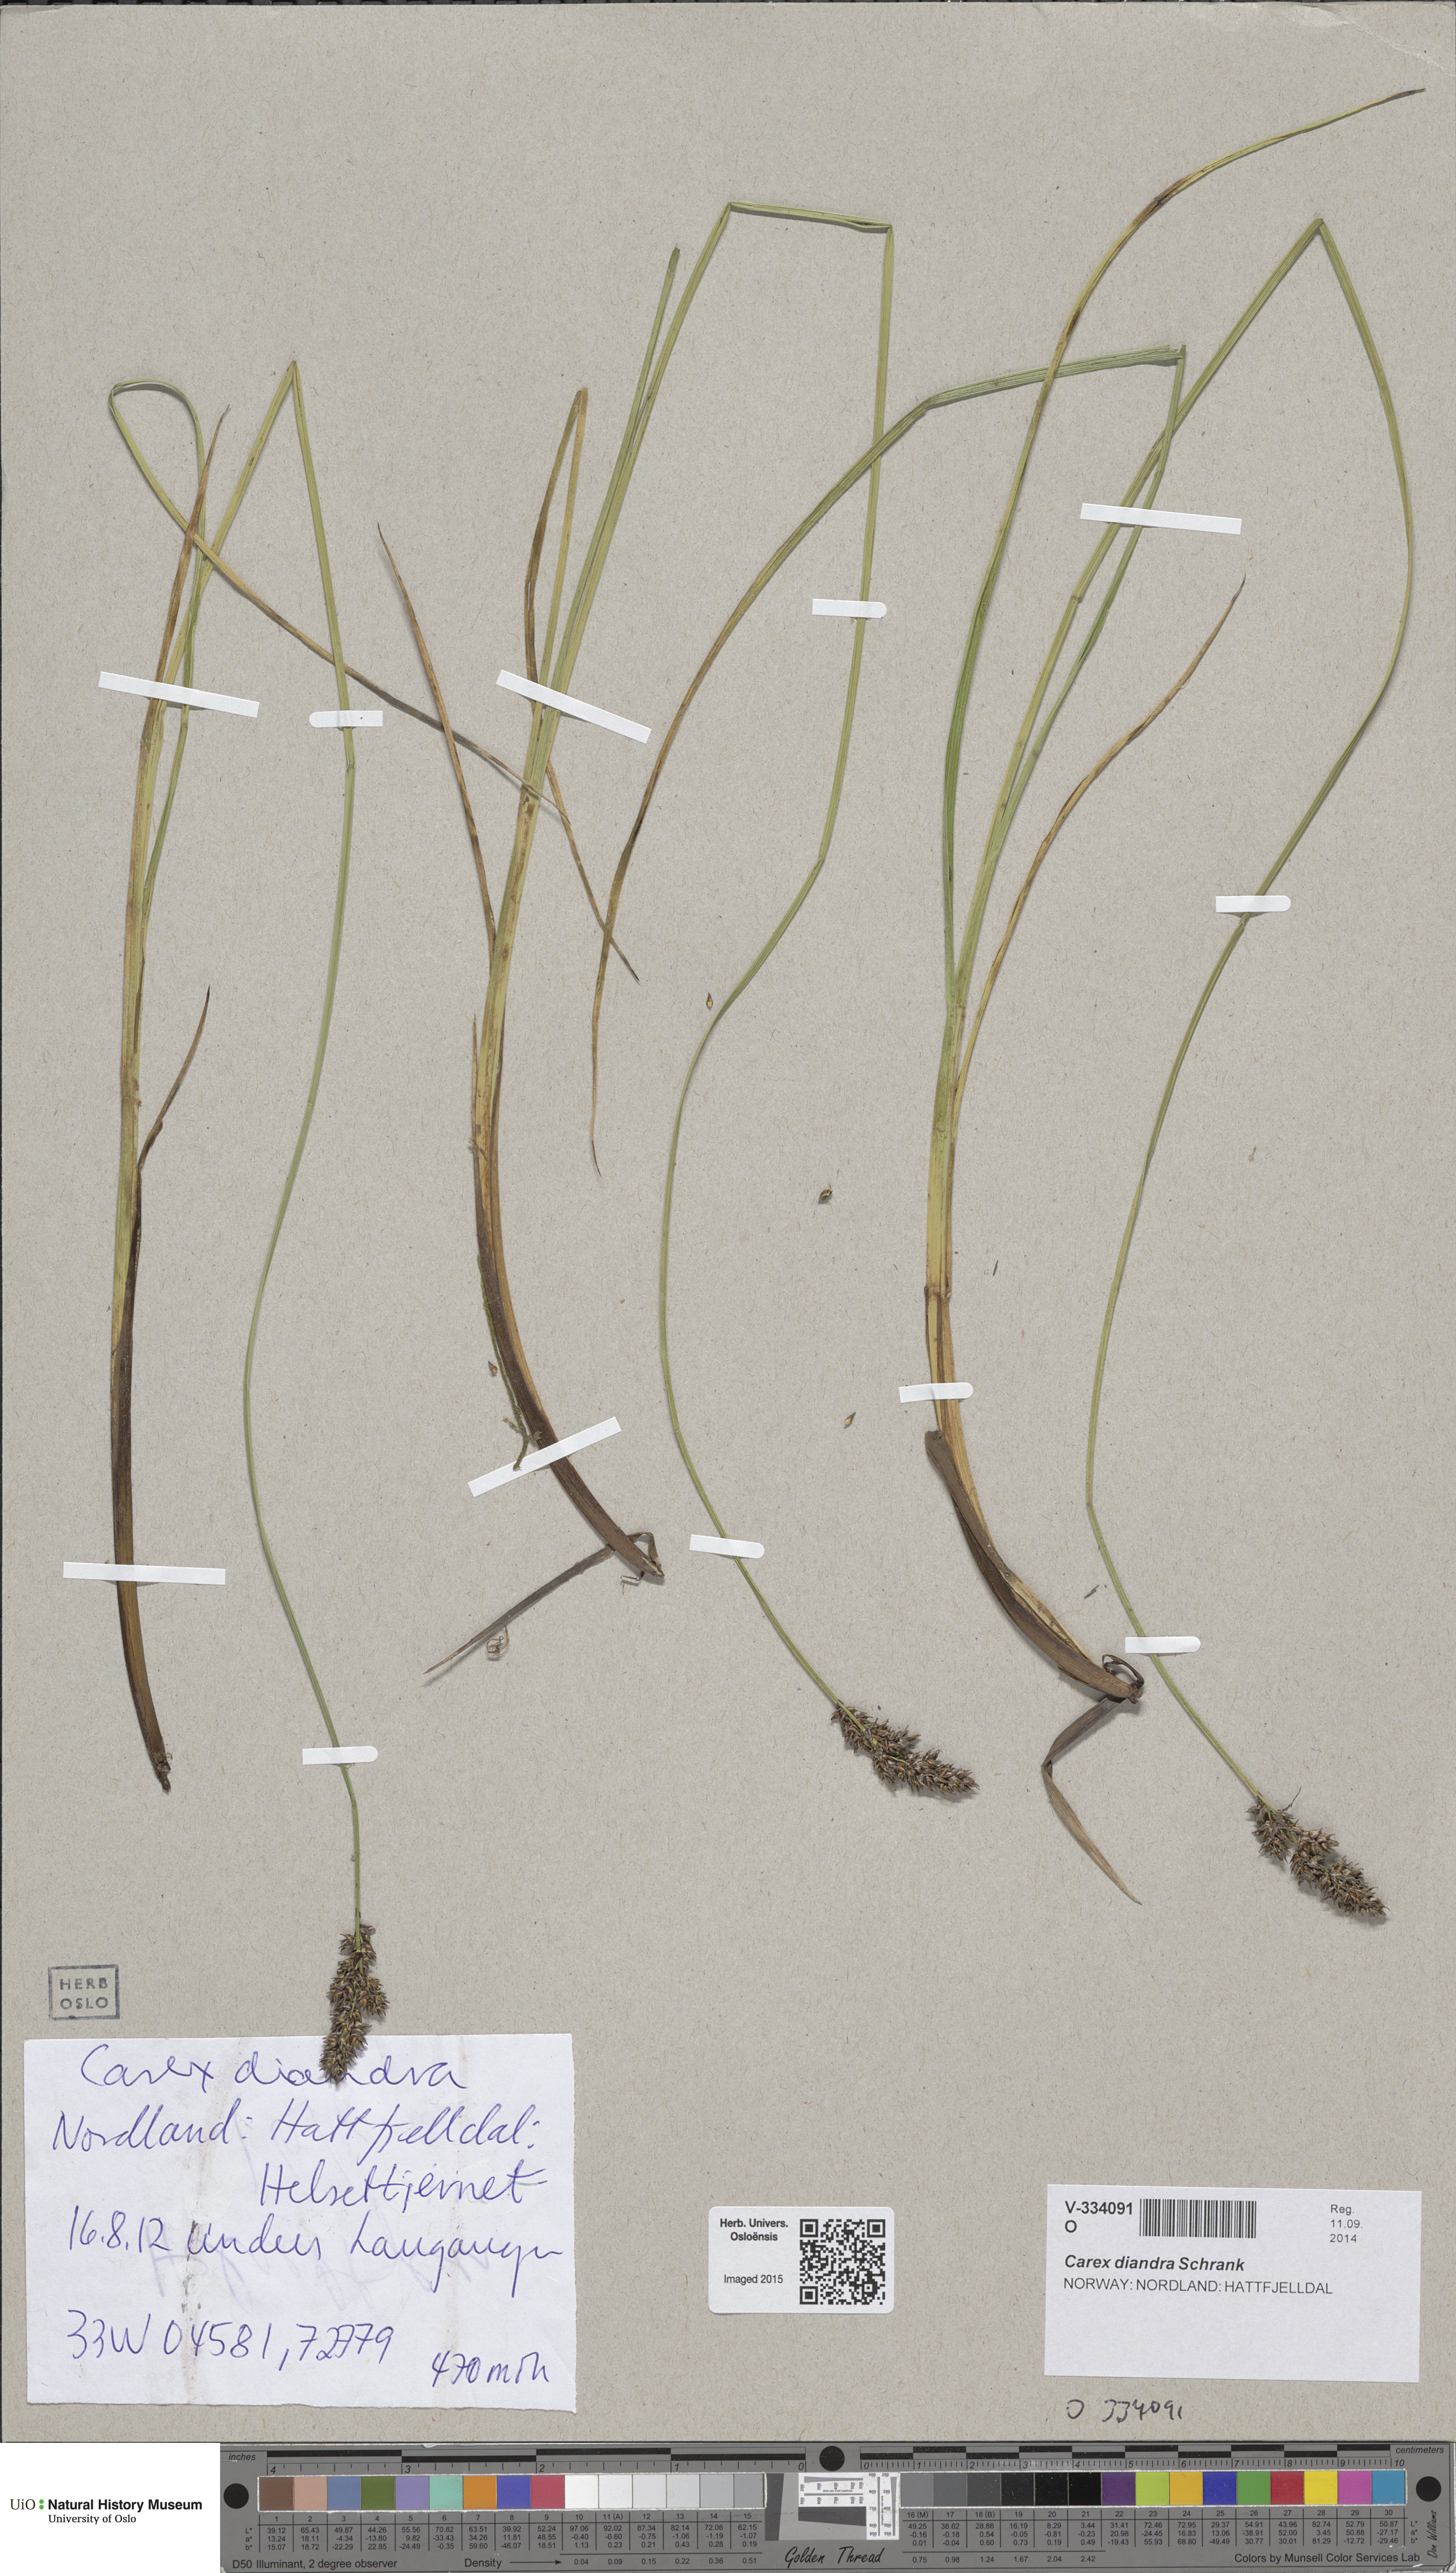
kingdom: Plantae
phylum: Tracheophyta
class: Liliopsida
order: Poales
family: Cyperaceae
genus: Carex
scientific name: Carex diandra
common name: Lesser tussock-sedge
